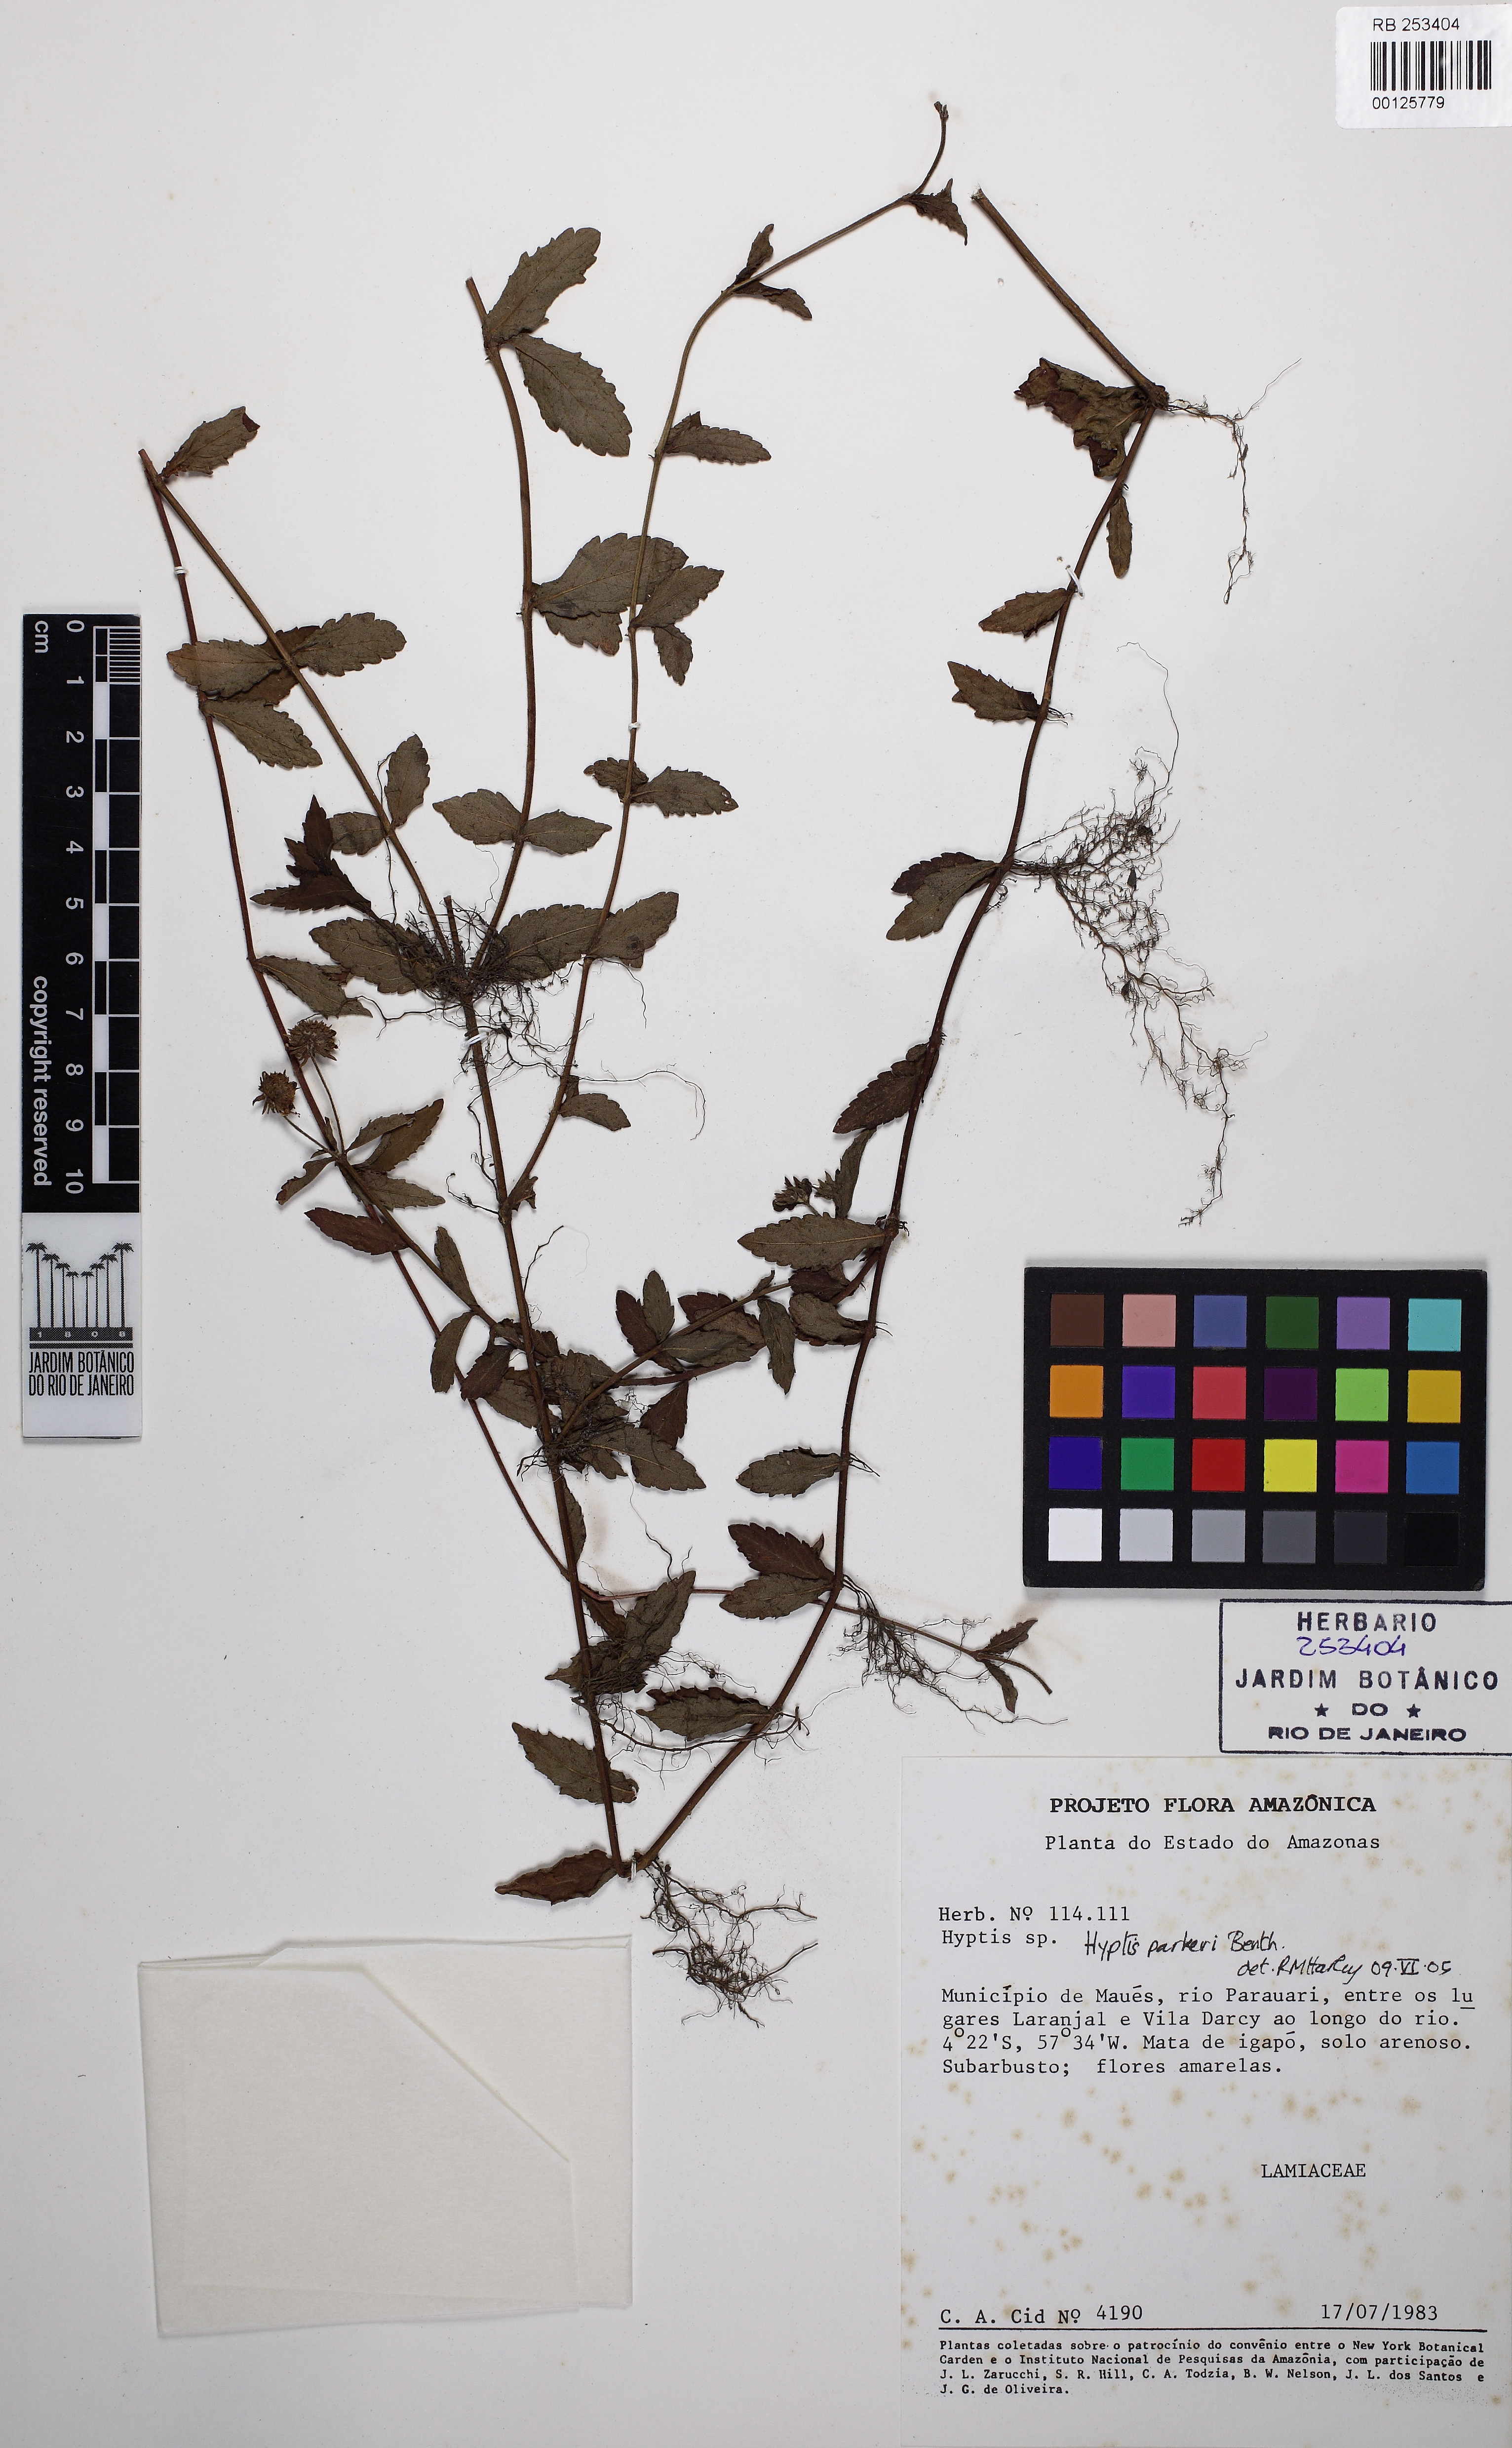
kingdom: Plantae
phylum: Tracheophyta
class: Magnoliopsida
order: Lamiales
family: Lamiaceae
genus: Hyptis
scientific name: Hyptis parkeri
